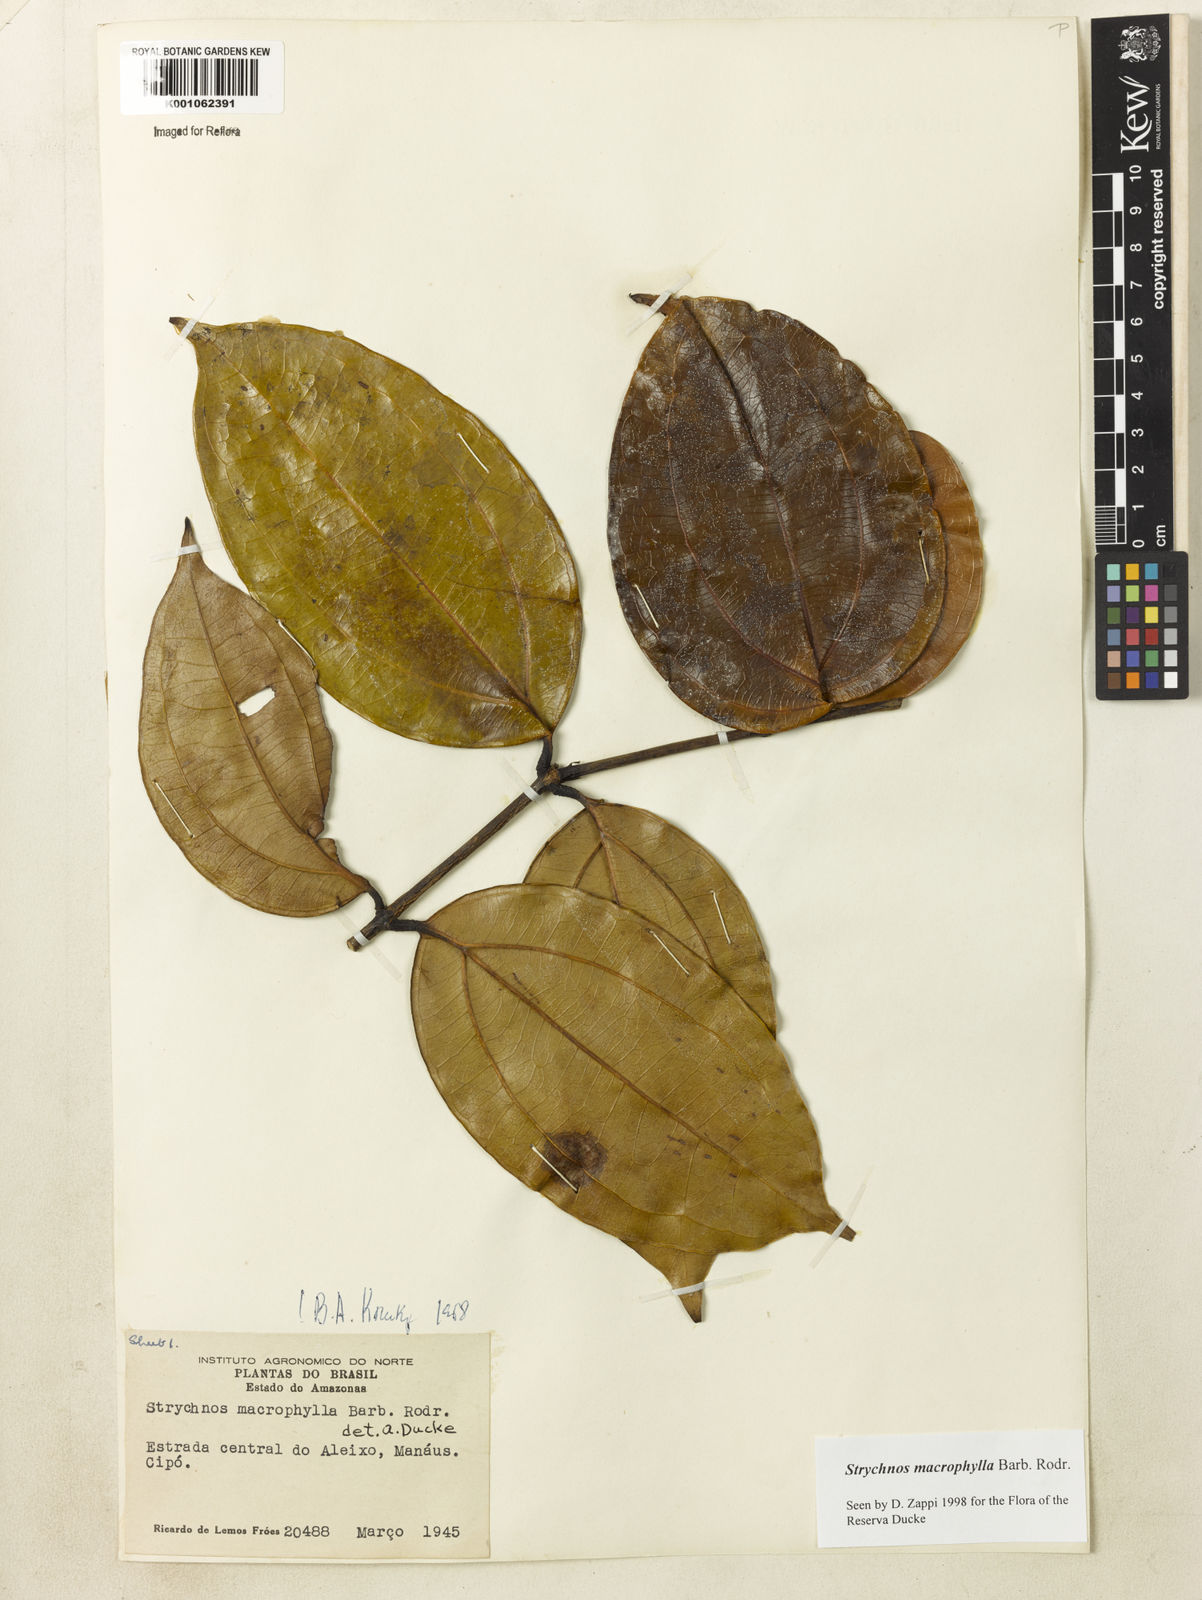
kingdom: Plantae
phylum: Tracheophyta
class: Magnoliopsida
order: Gentianales
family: Loganiaceae
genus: Strychnos
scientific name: Strychnos
